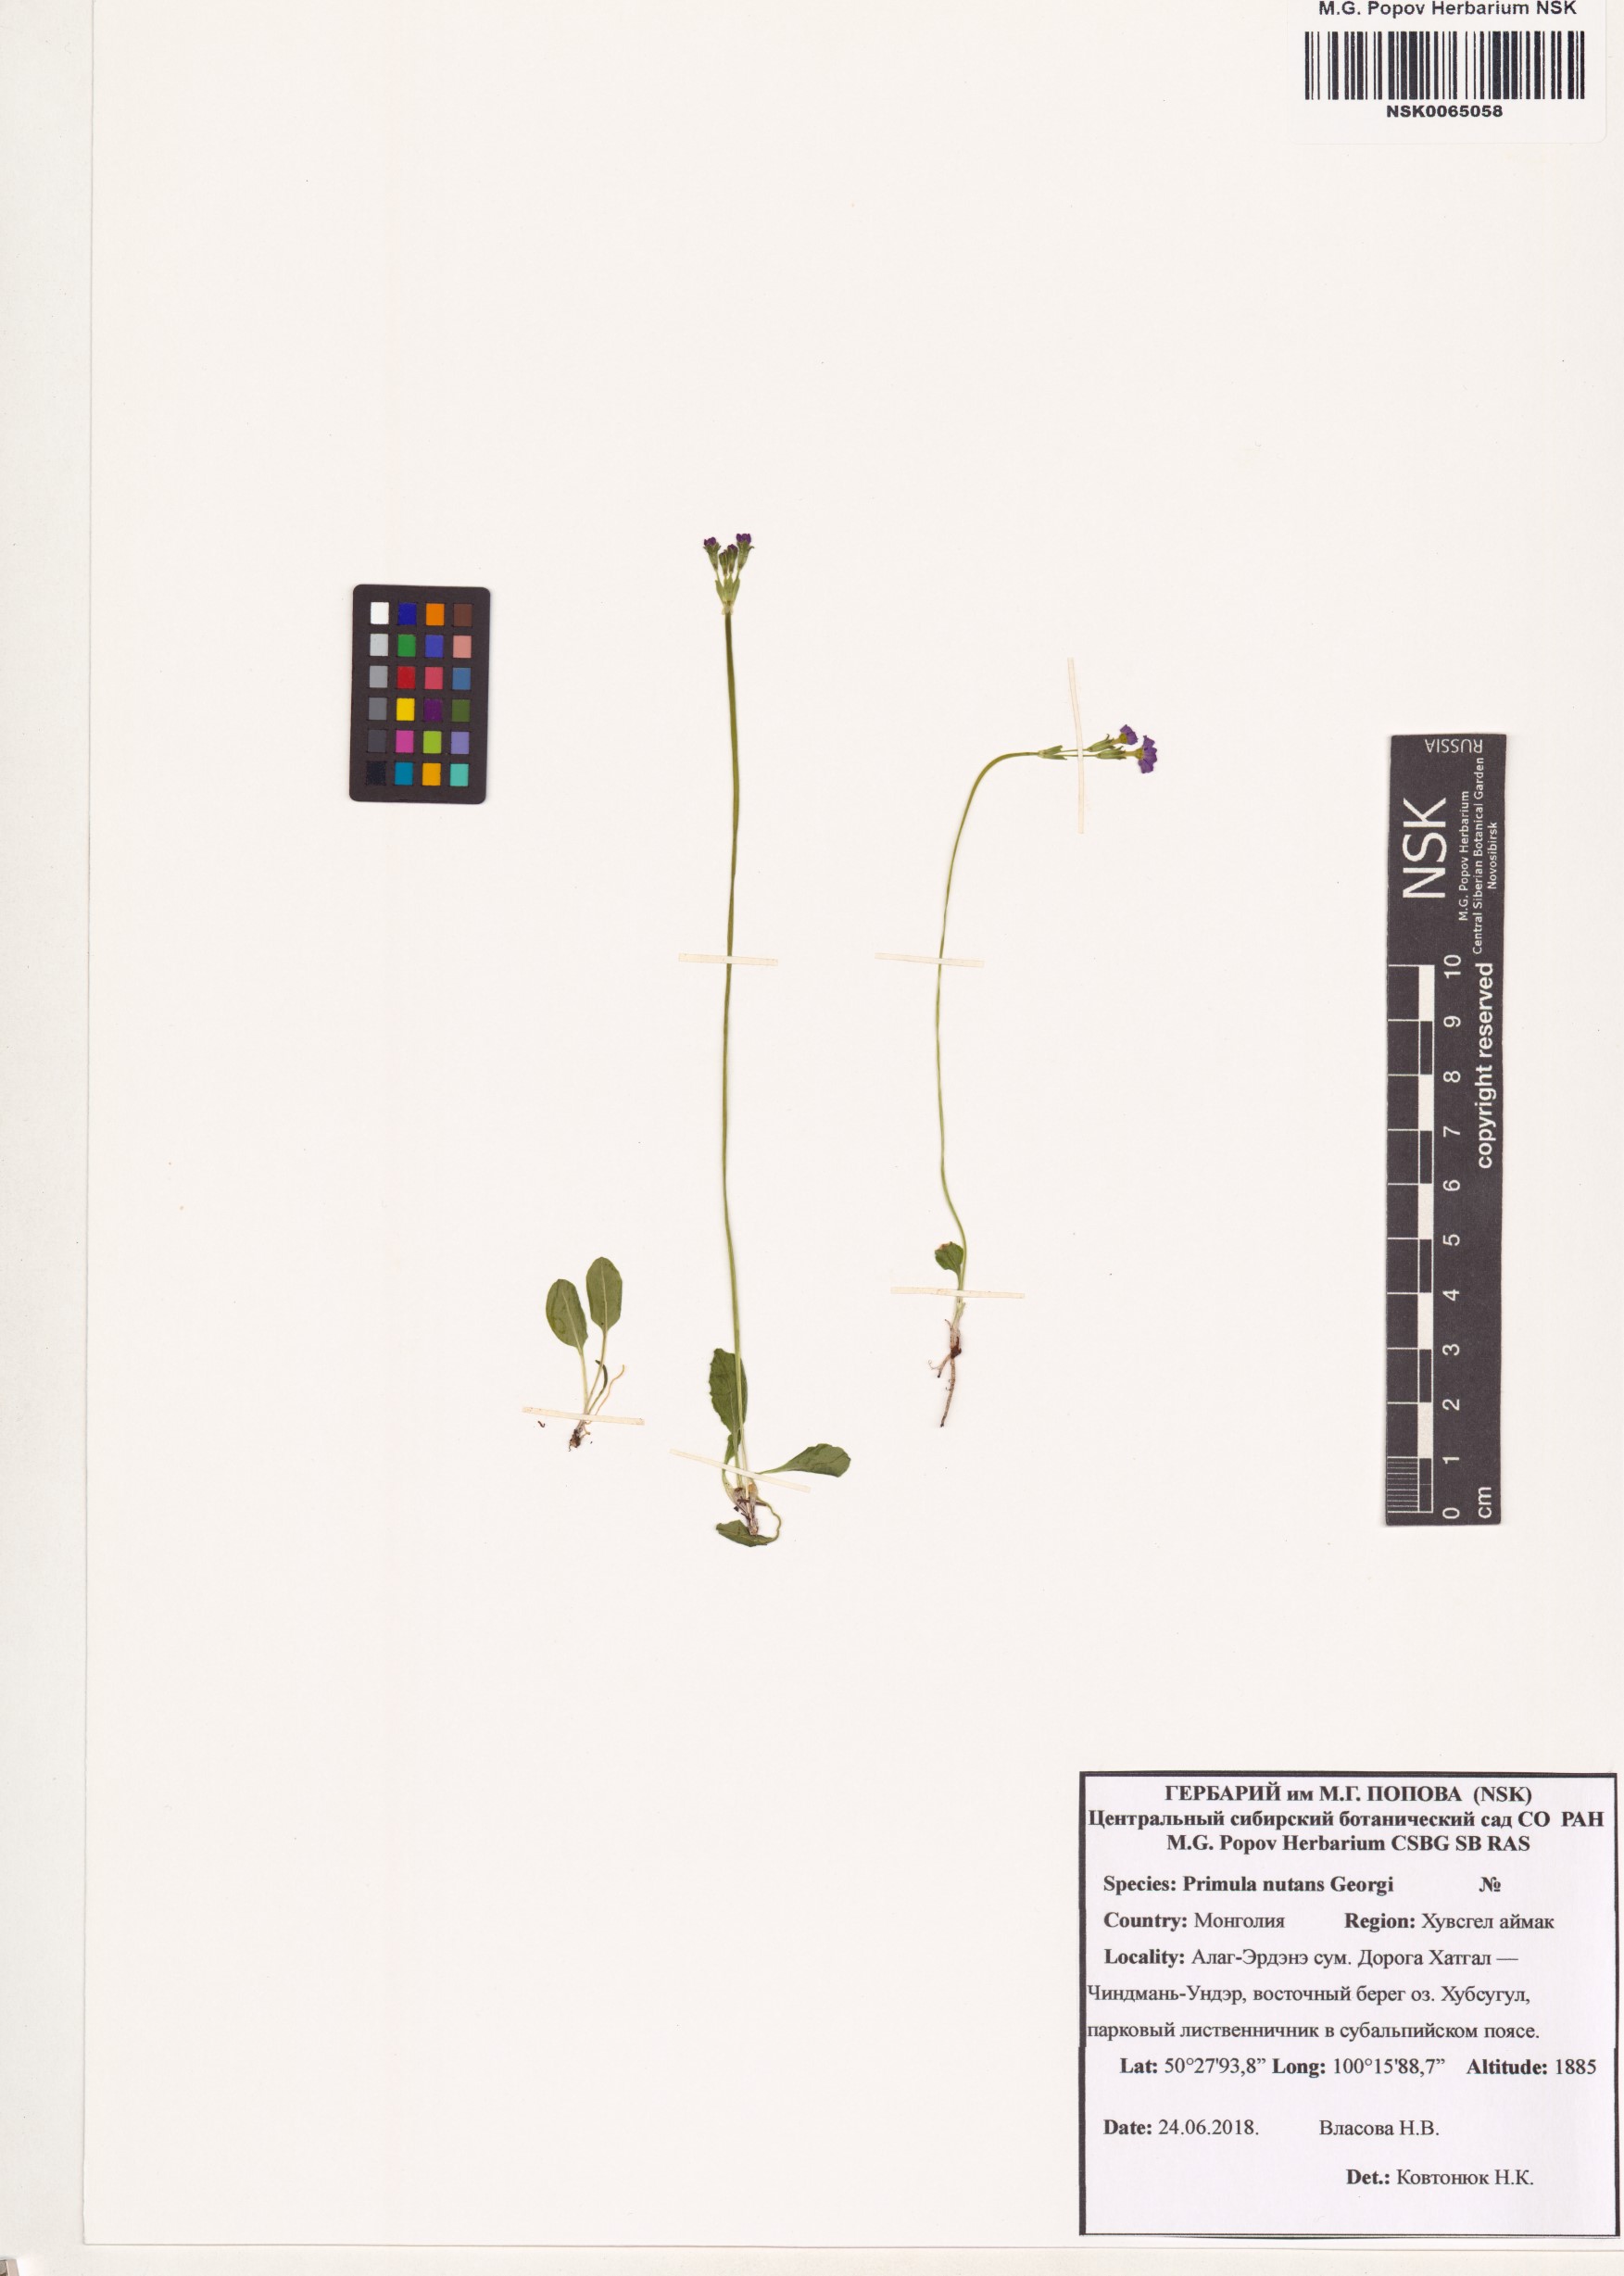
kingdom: Plantae
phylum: Tracheophyta
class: Magnoliopsida
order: Ericales
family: Primulaceae
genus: Primula
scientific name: Primula nutans
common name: Siberian primrose
